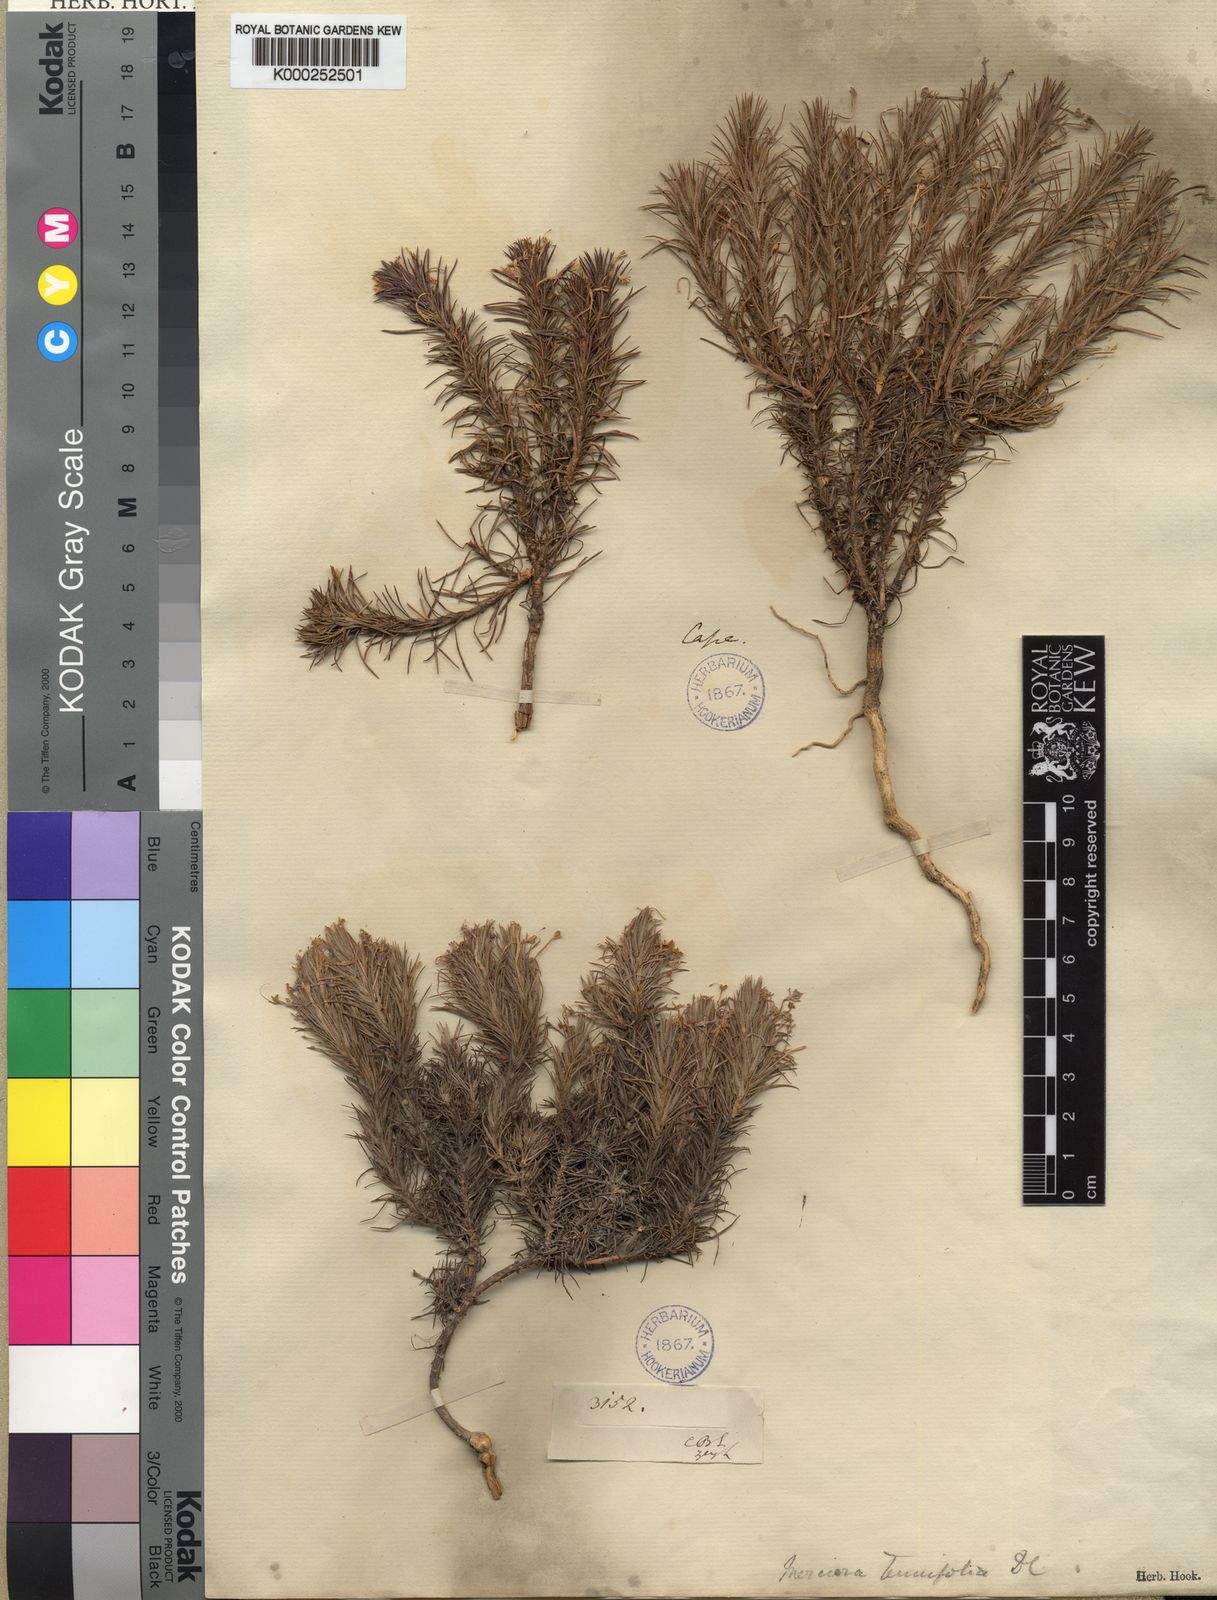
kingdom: Plantae
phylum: Tracheophyta
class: Magnoliopsida
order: Asterales
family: Campanulaceae
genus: Merciera
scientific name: Merciera tenuifolia
